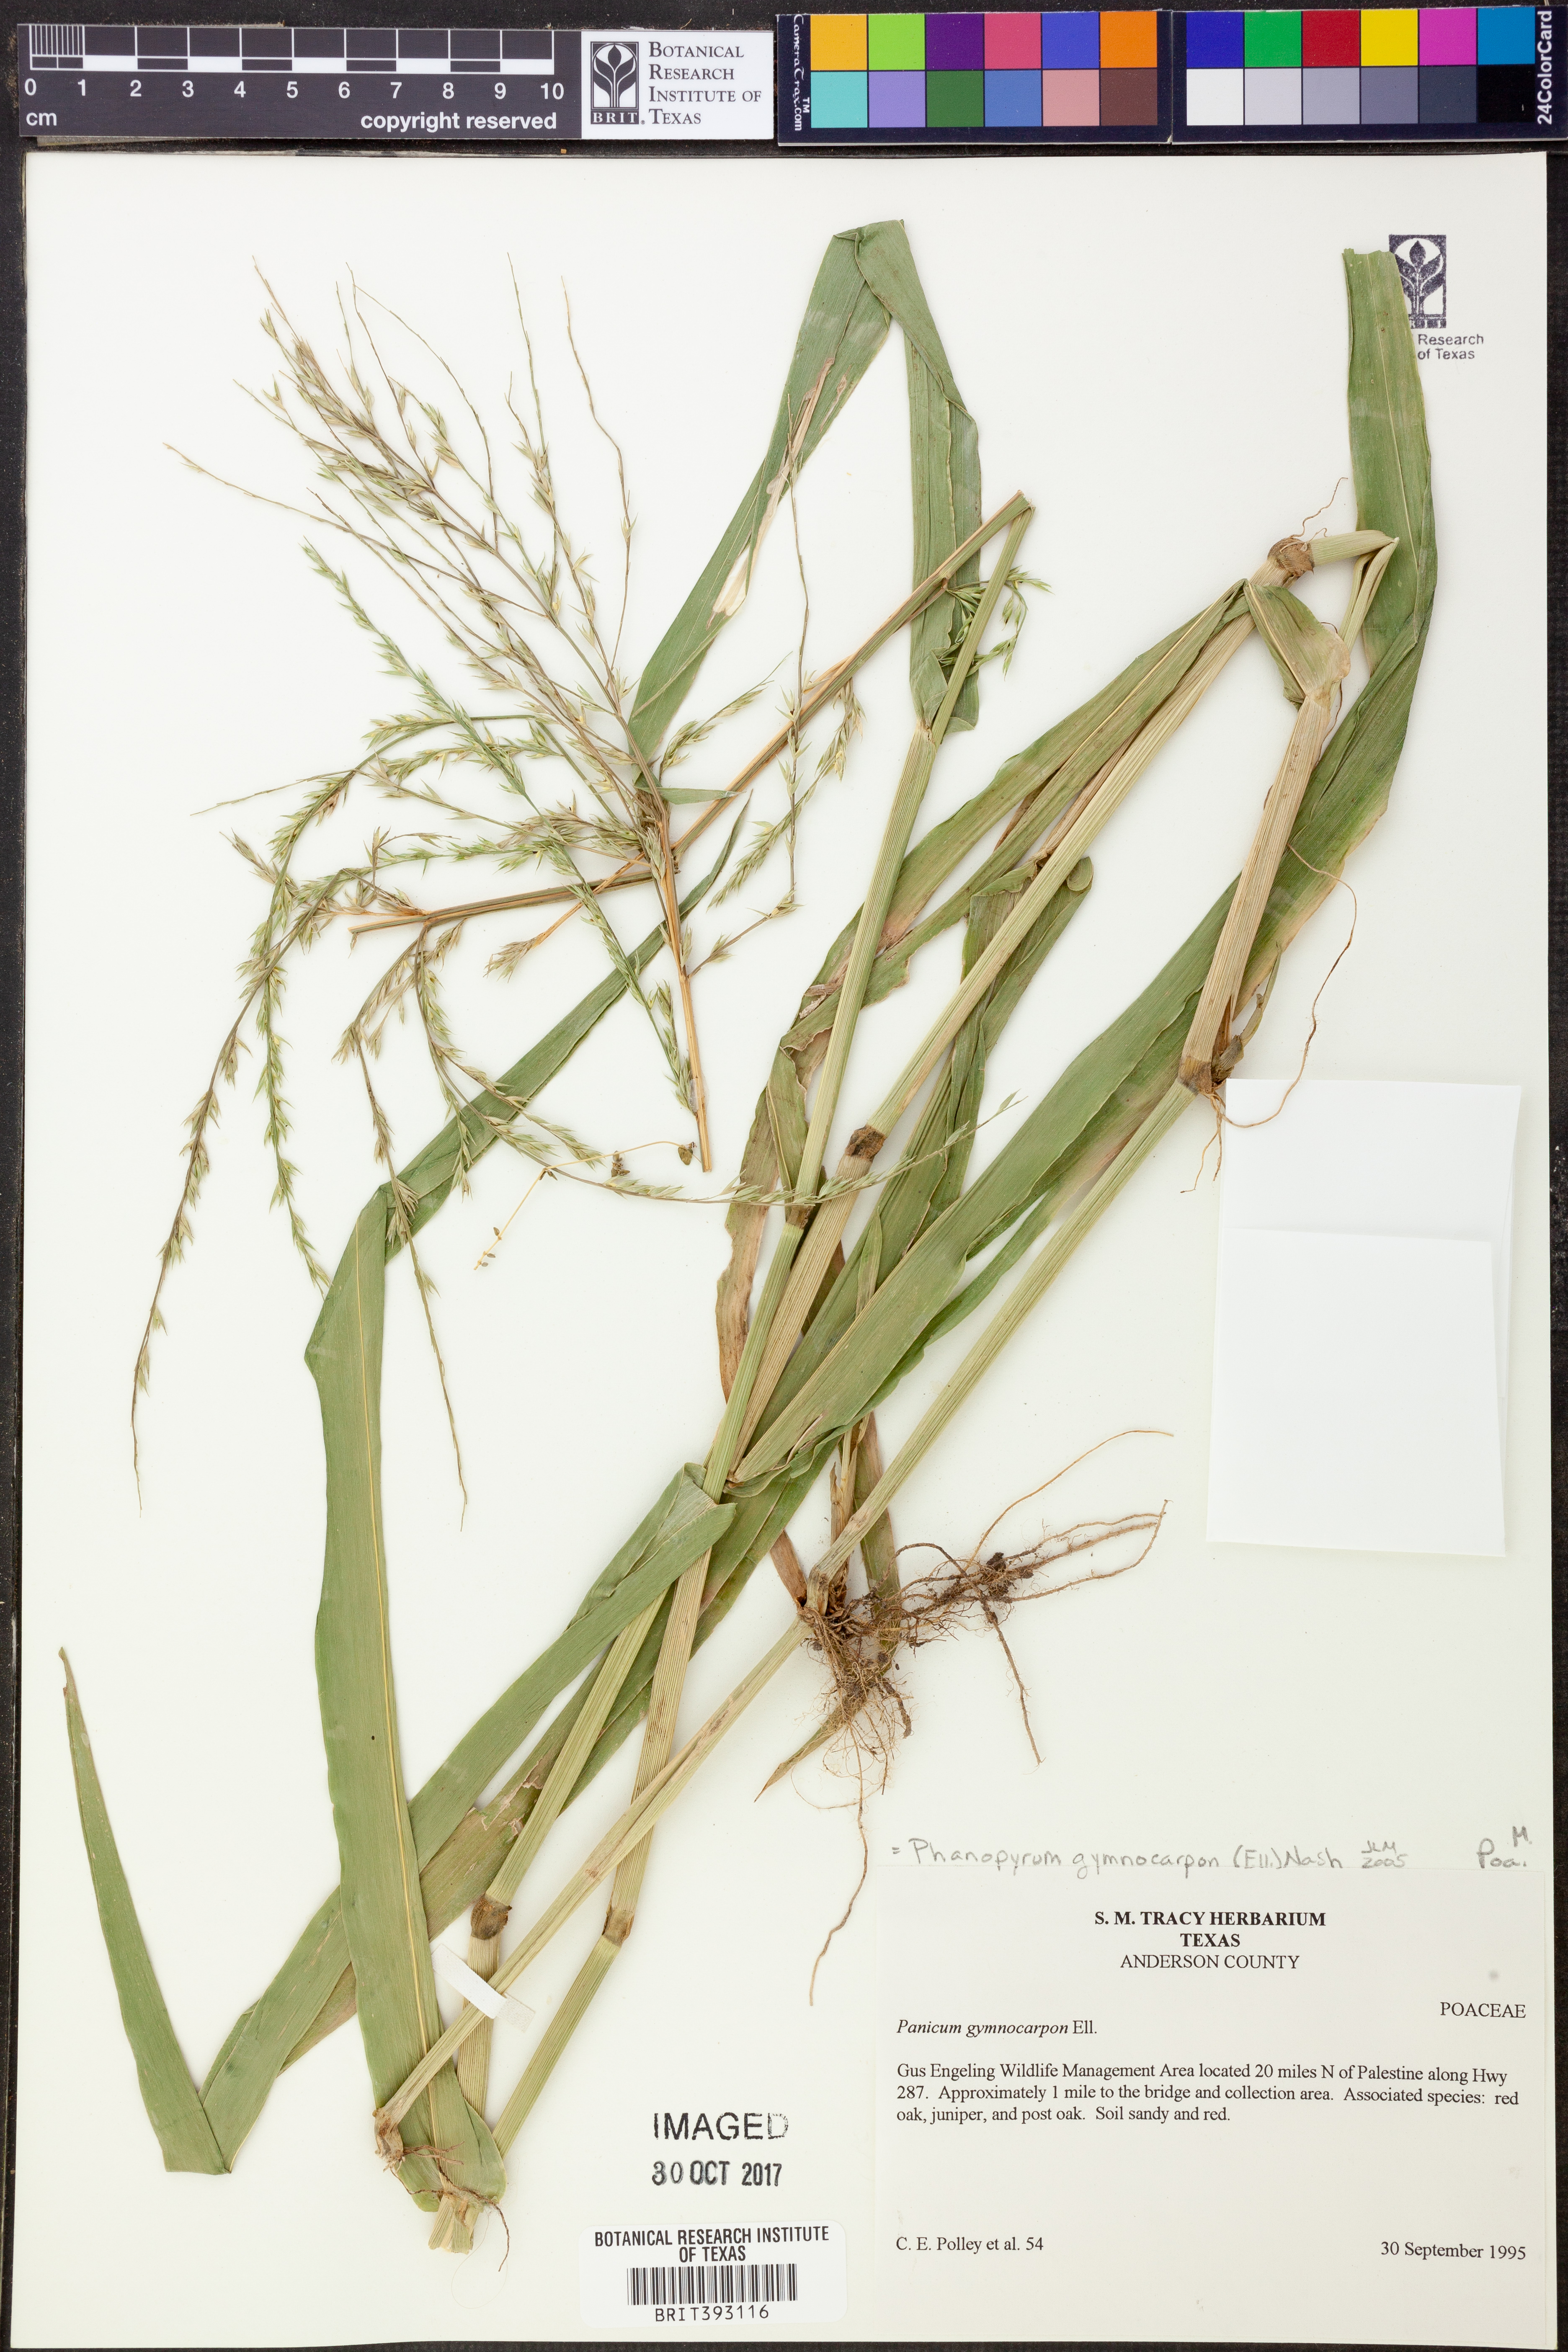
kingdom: Plantae
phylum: Tracheophyta
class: Liliopsida
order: Poales
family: Poaceae
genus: Panicum
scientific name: Panicum gymnocarpon
